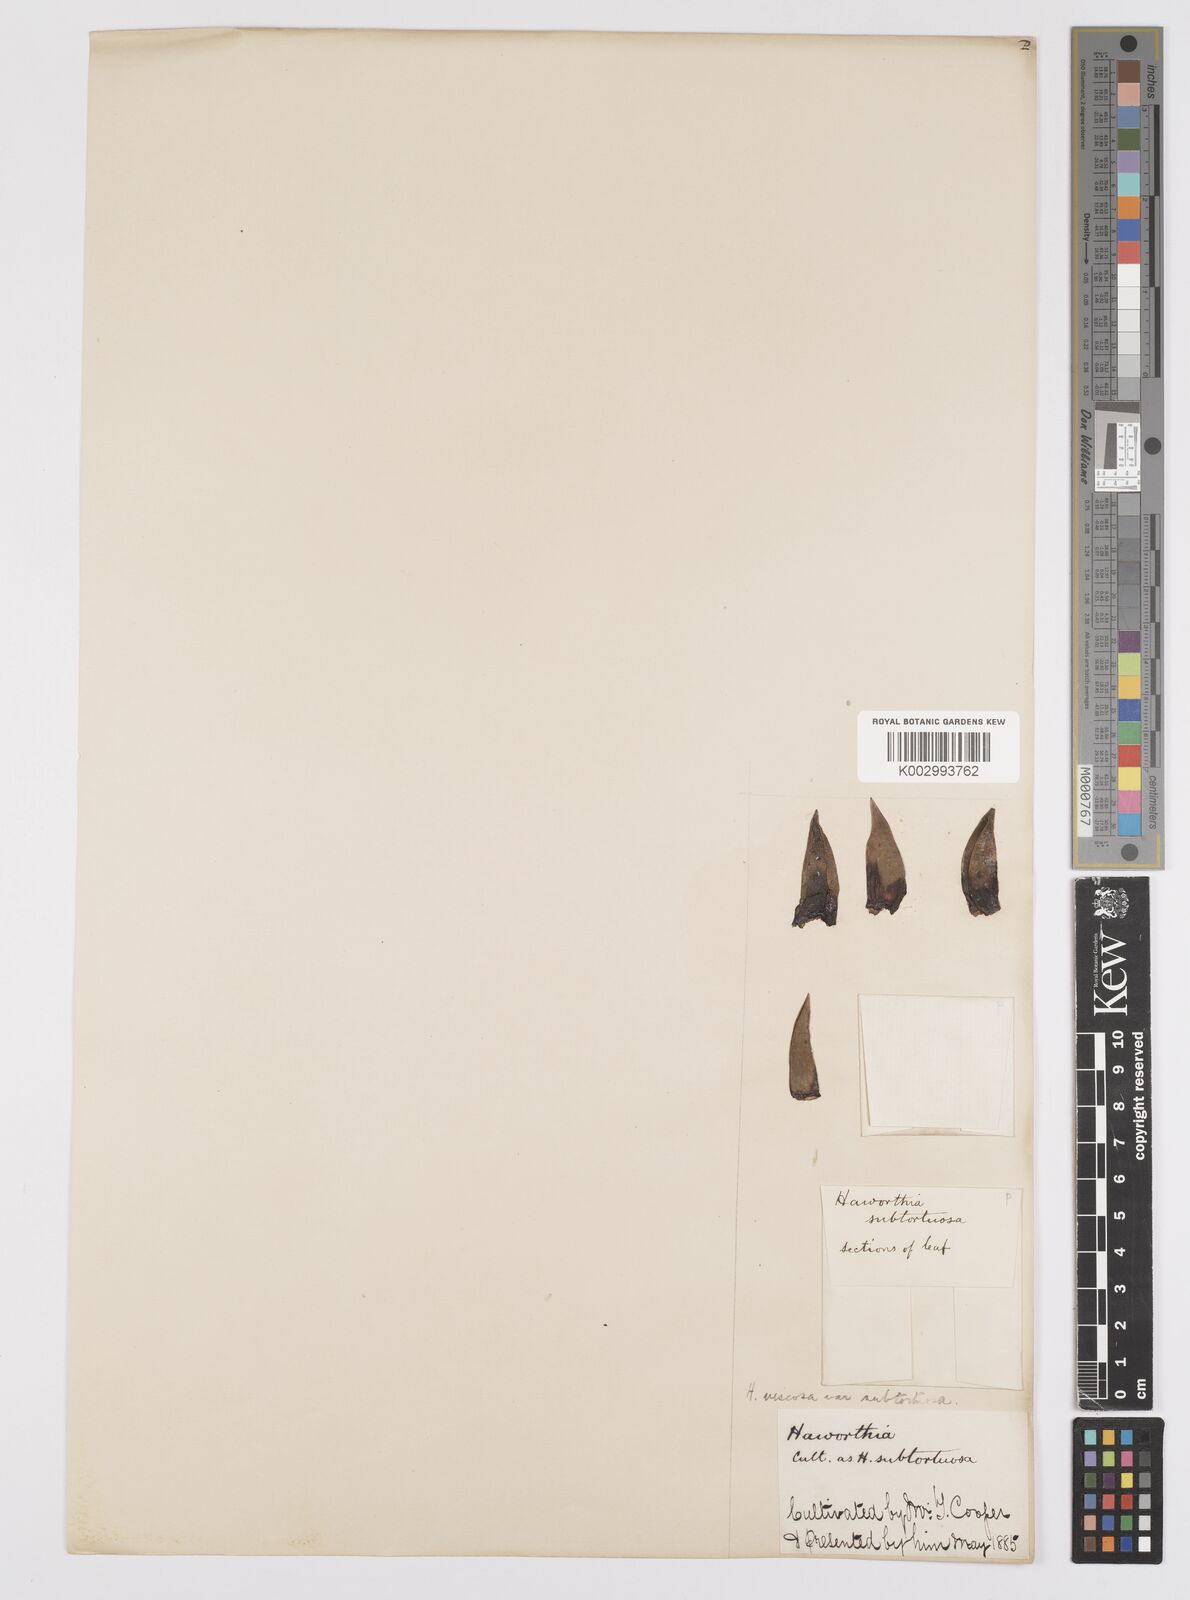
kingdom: Plantae
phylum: Tracheophyta
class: Liliopsida
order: Asparagales
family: Asphodelaceae
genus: Haworthiopsis
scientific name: Haworthiopsis viscosa
